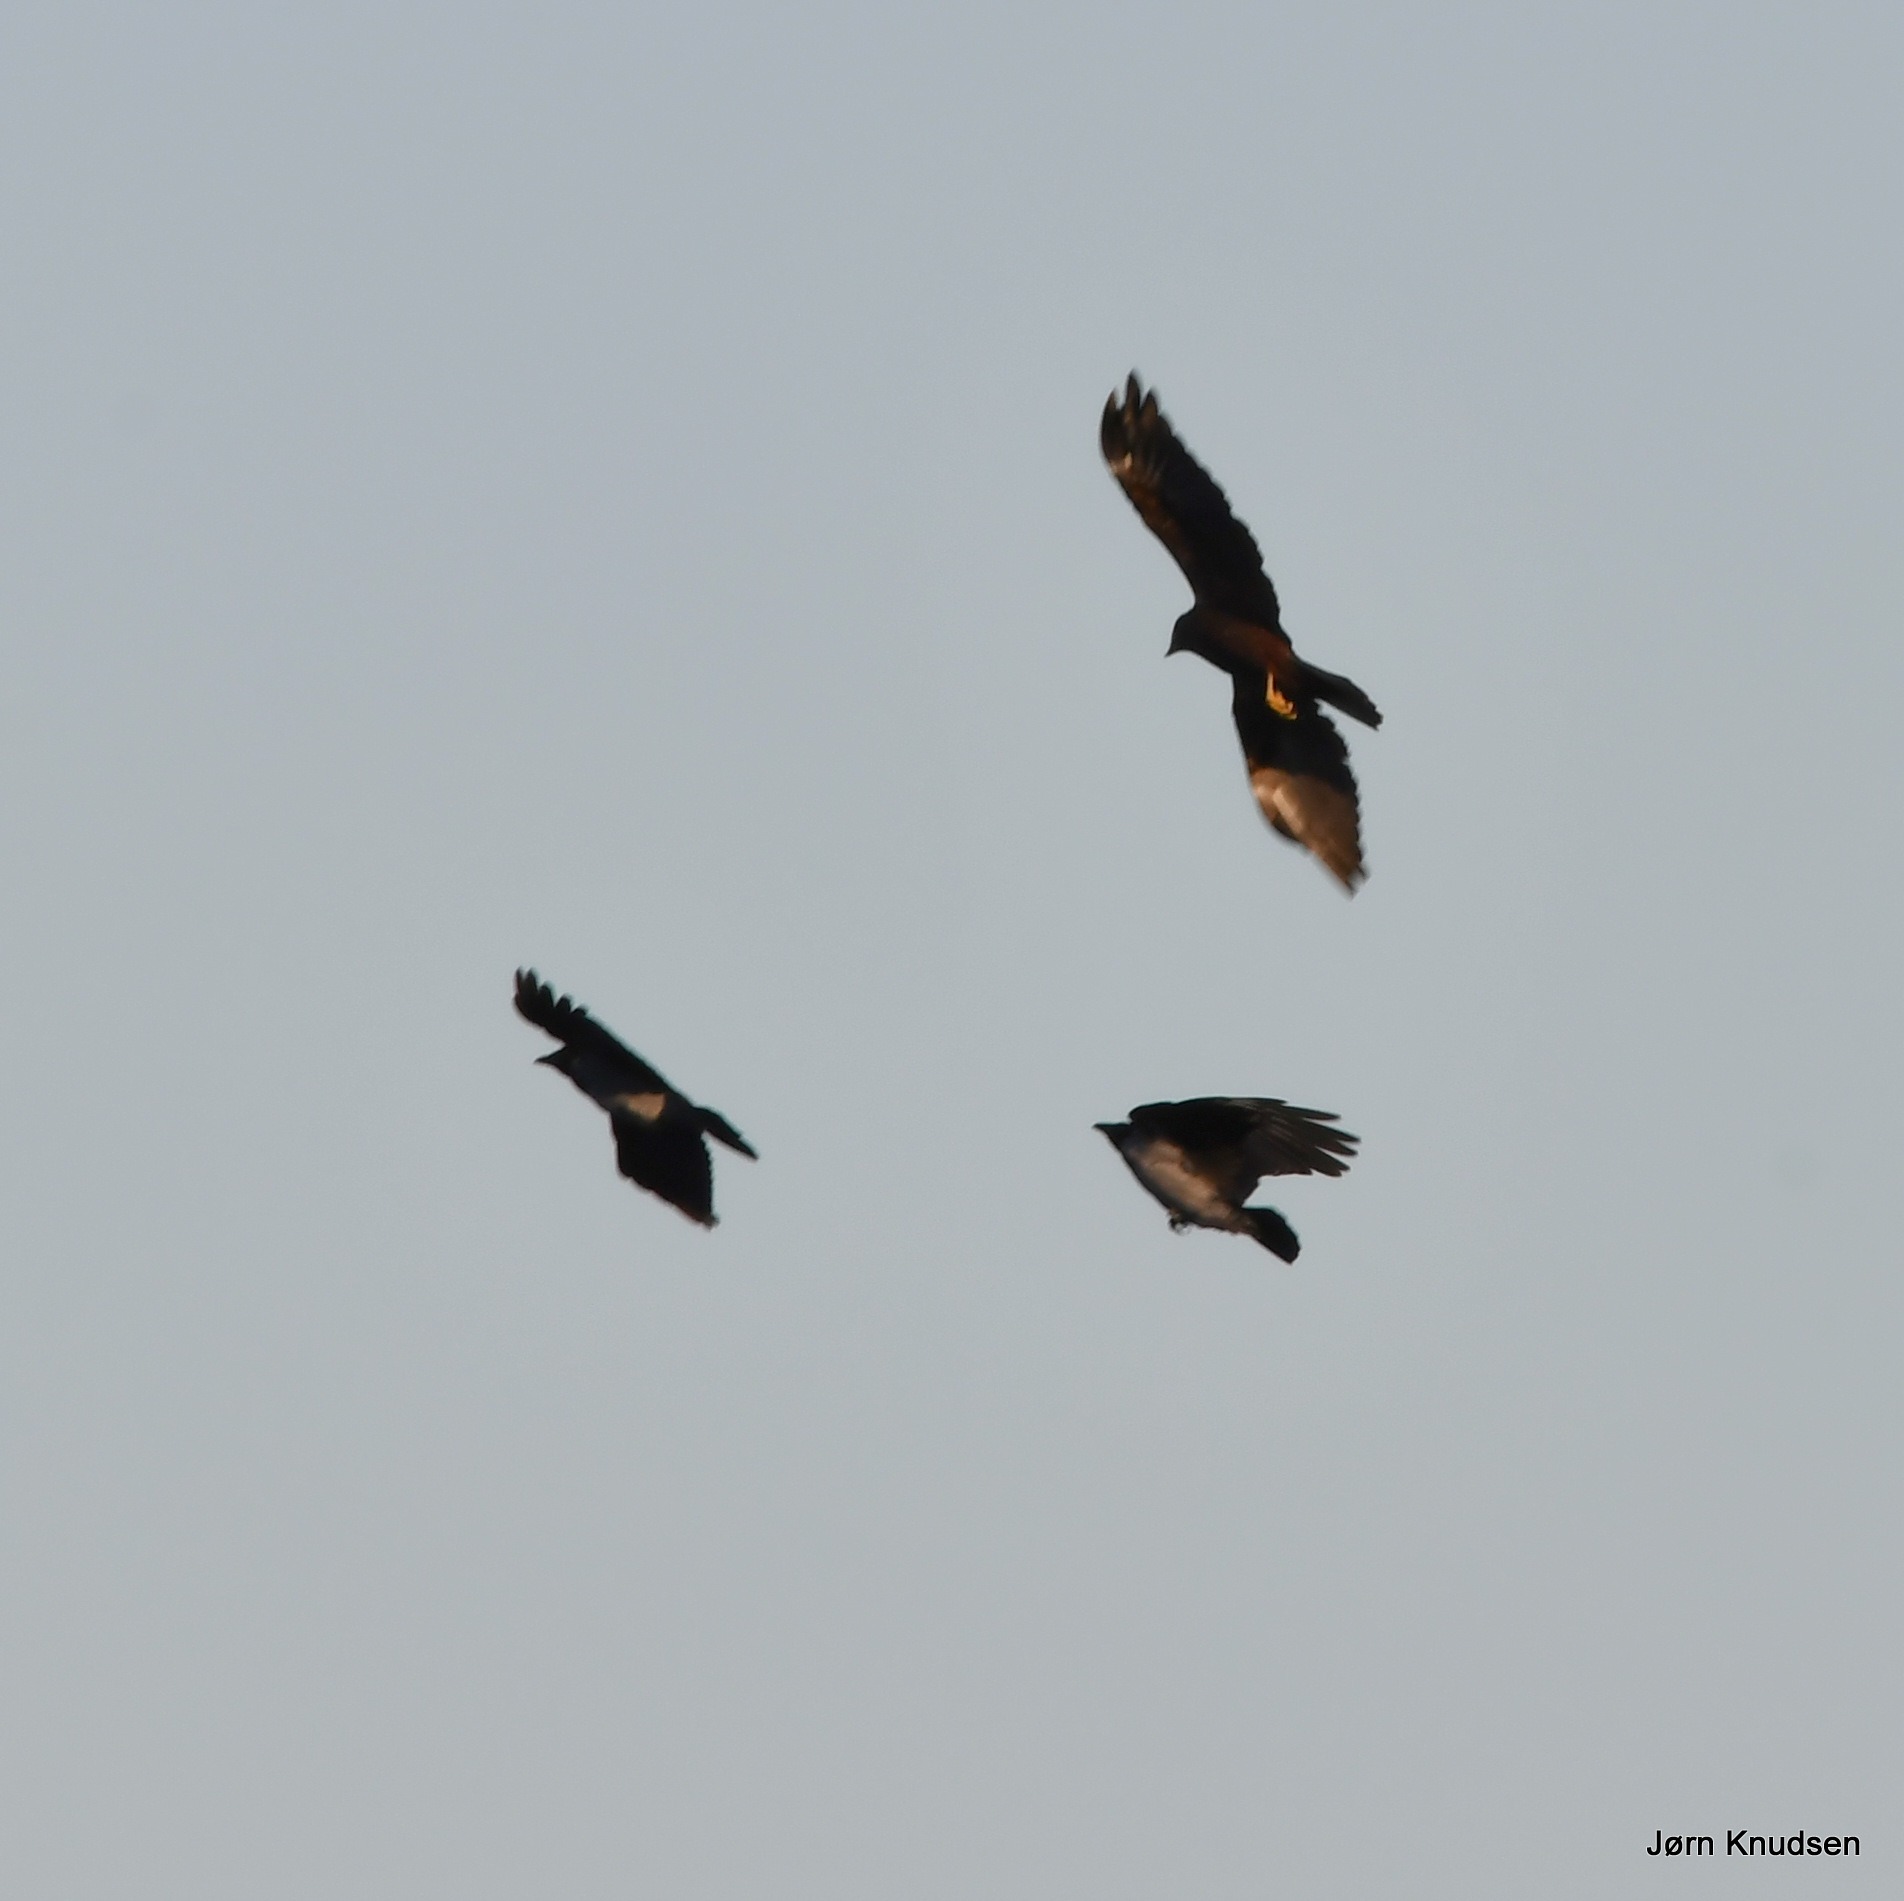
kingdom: Animalia
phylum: Chordata
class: Aves
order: Accipitriformes
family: Accipitridae
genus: Circus
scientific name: Circus aeruginosus
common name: Rørhøg
